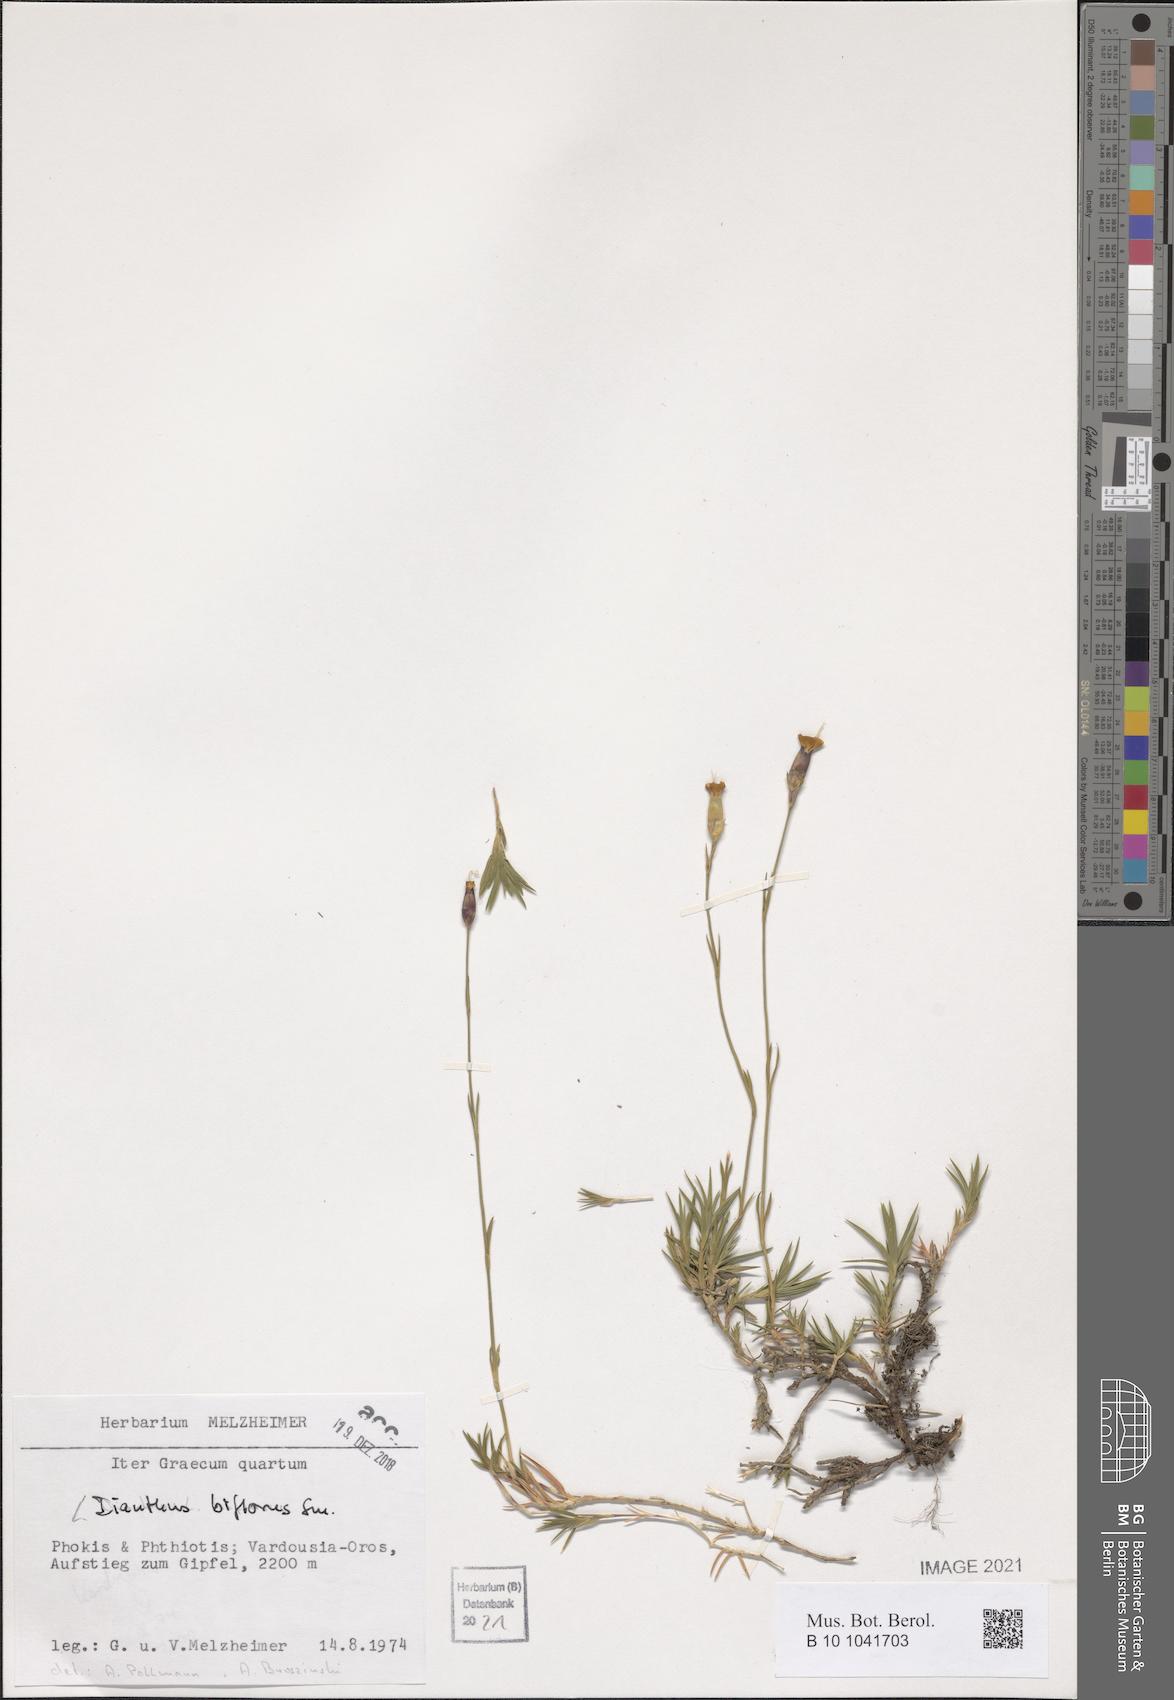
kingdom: Plantae
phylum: Tracheophyta
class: Magnoliopsida
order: Caryophyllales
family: Caryophyllaceae
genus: Dianthus
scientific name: Dianthus biflorus
